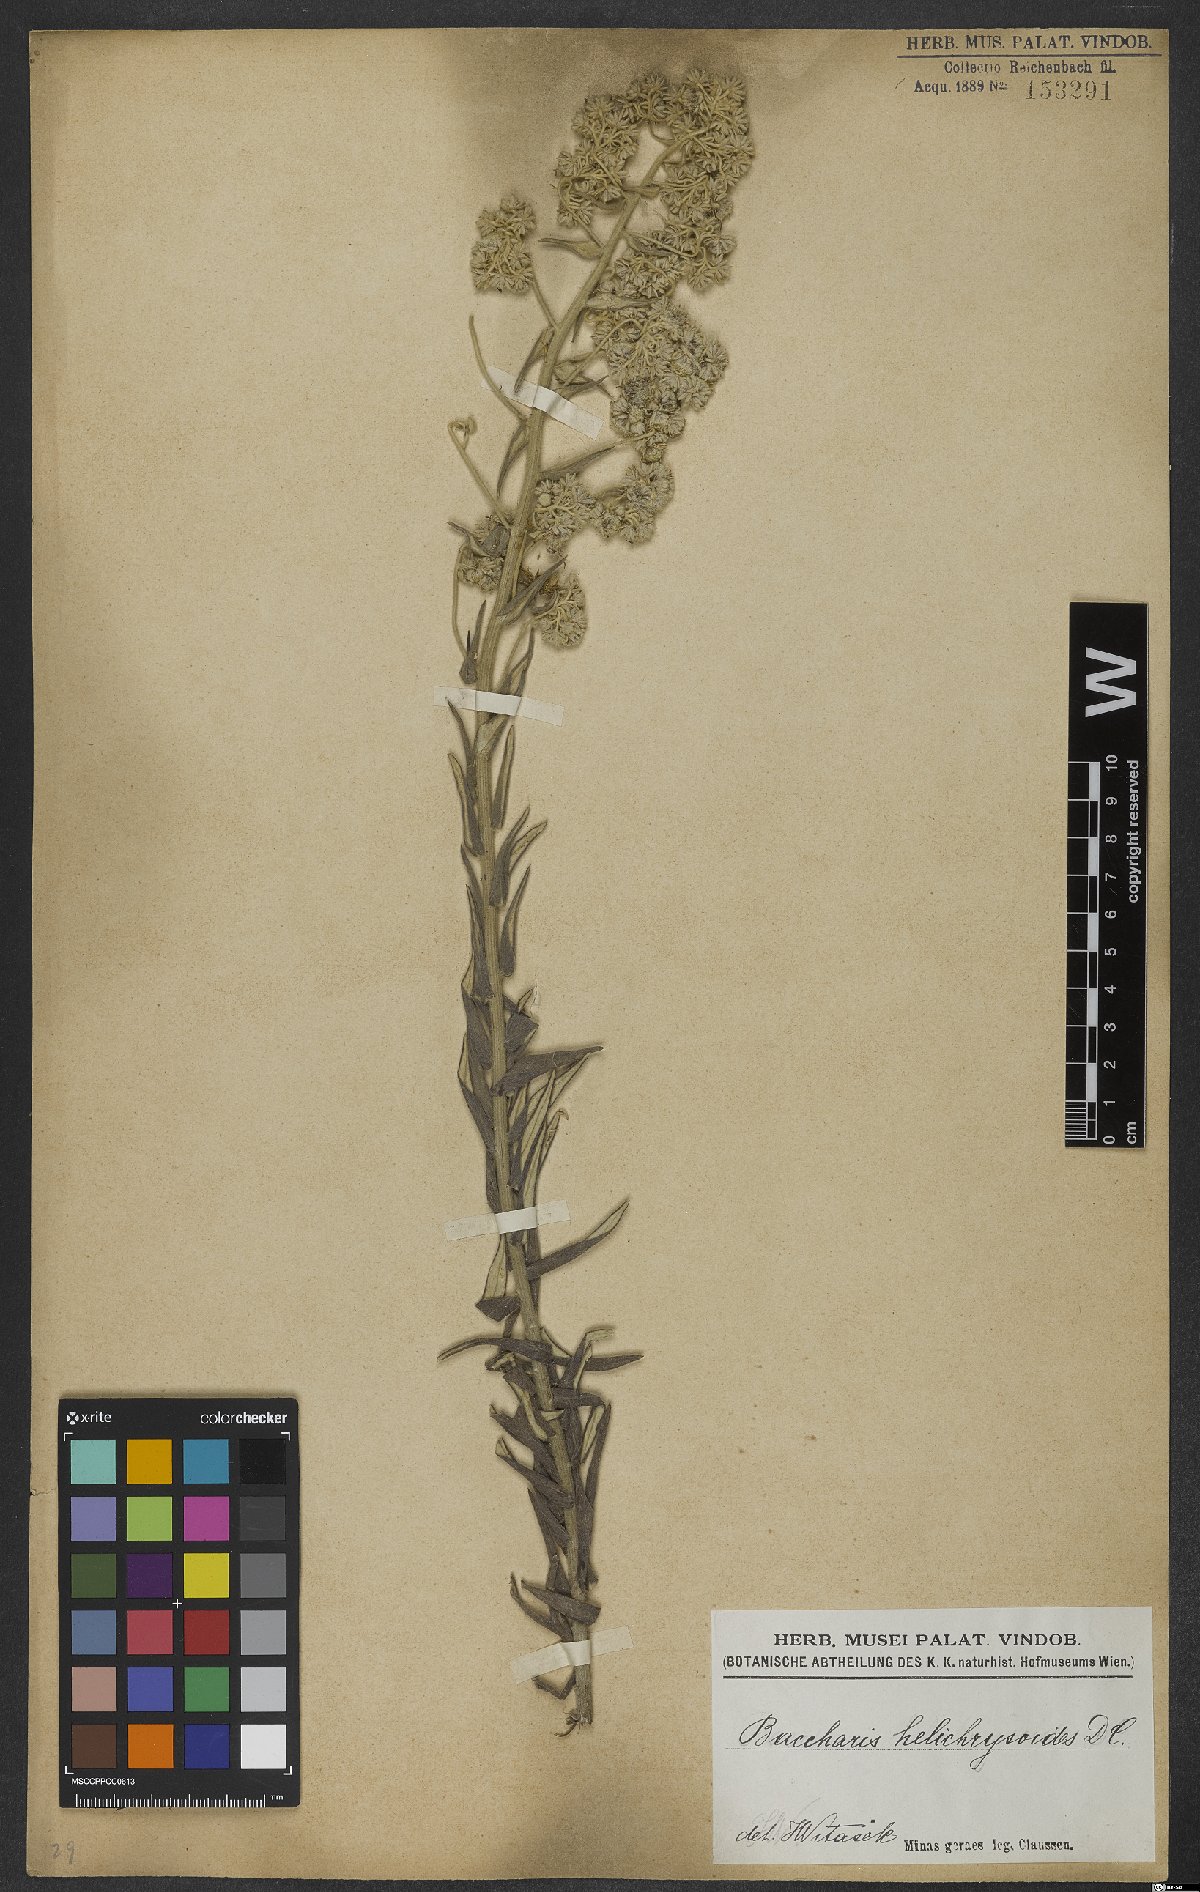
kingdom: Plantae
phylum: Tracheophyta
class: Magnoliopsida
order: Asterales
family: Asteraceae
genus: Baccharis
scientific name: Baccharis helichrysoides
